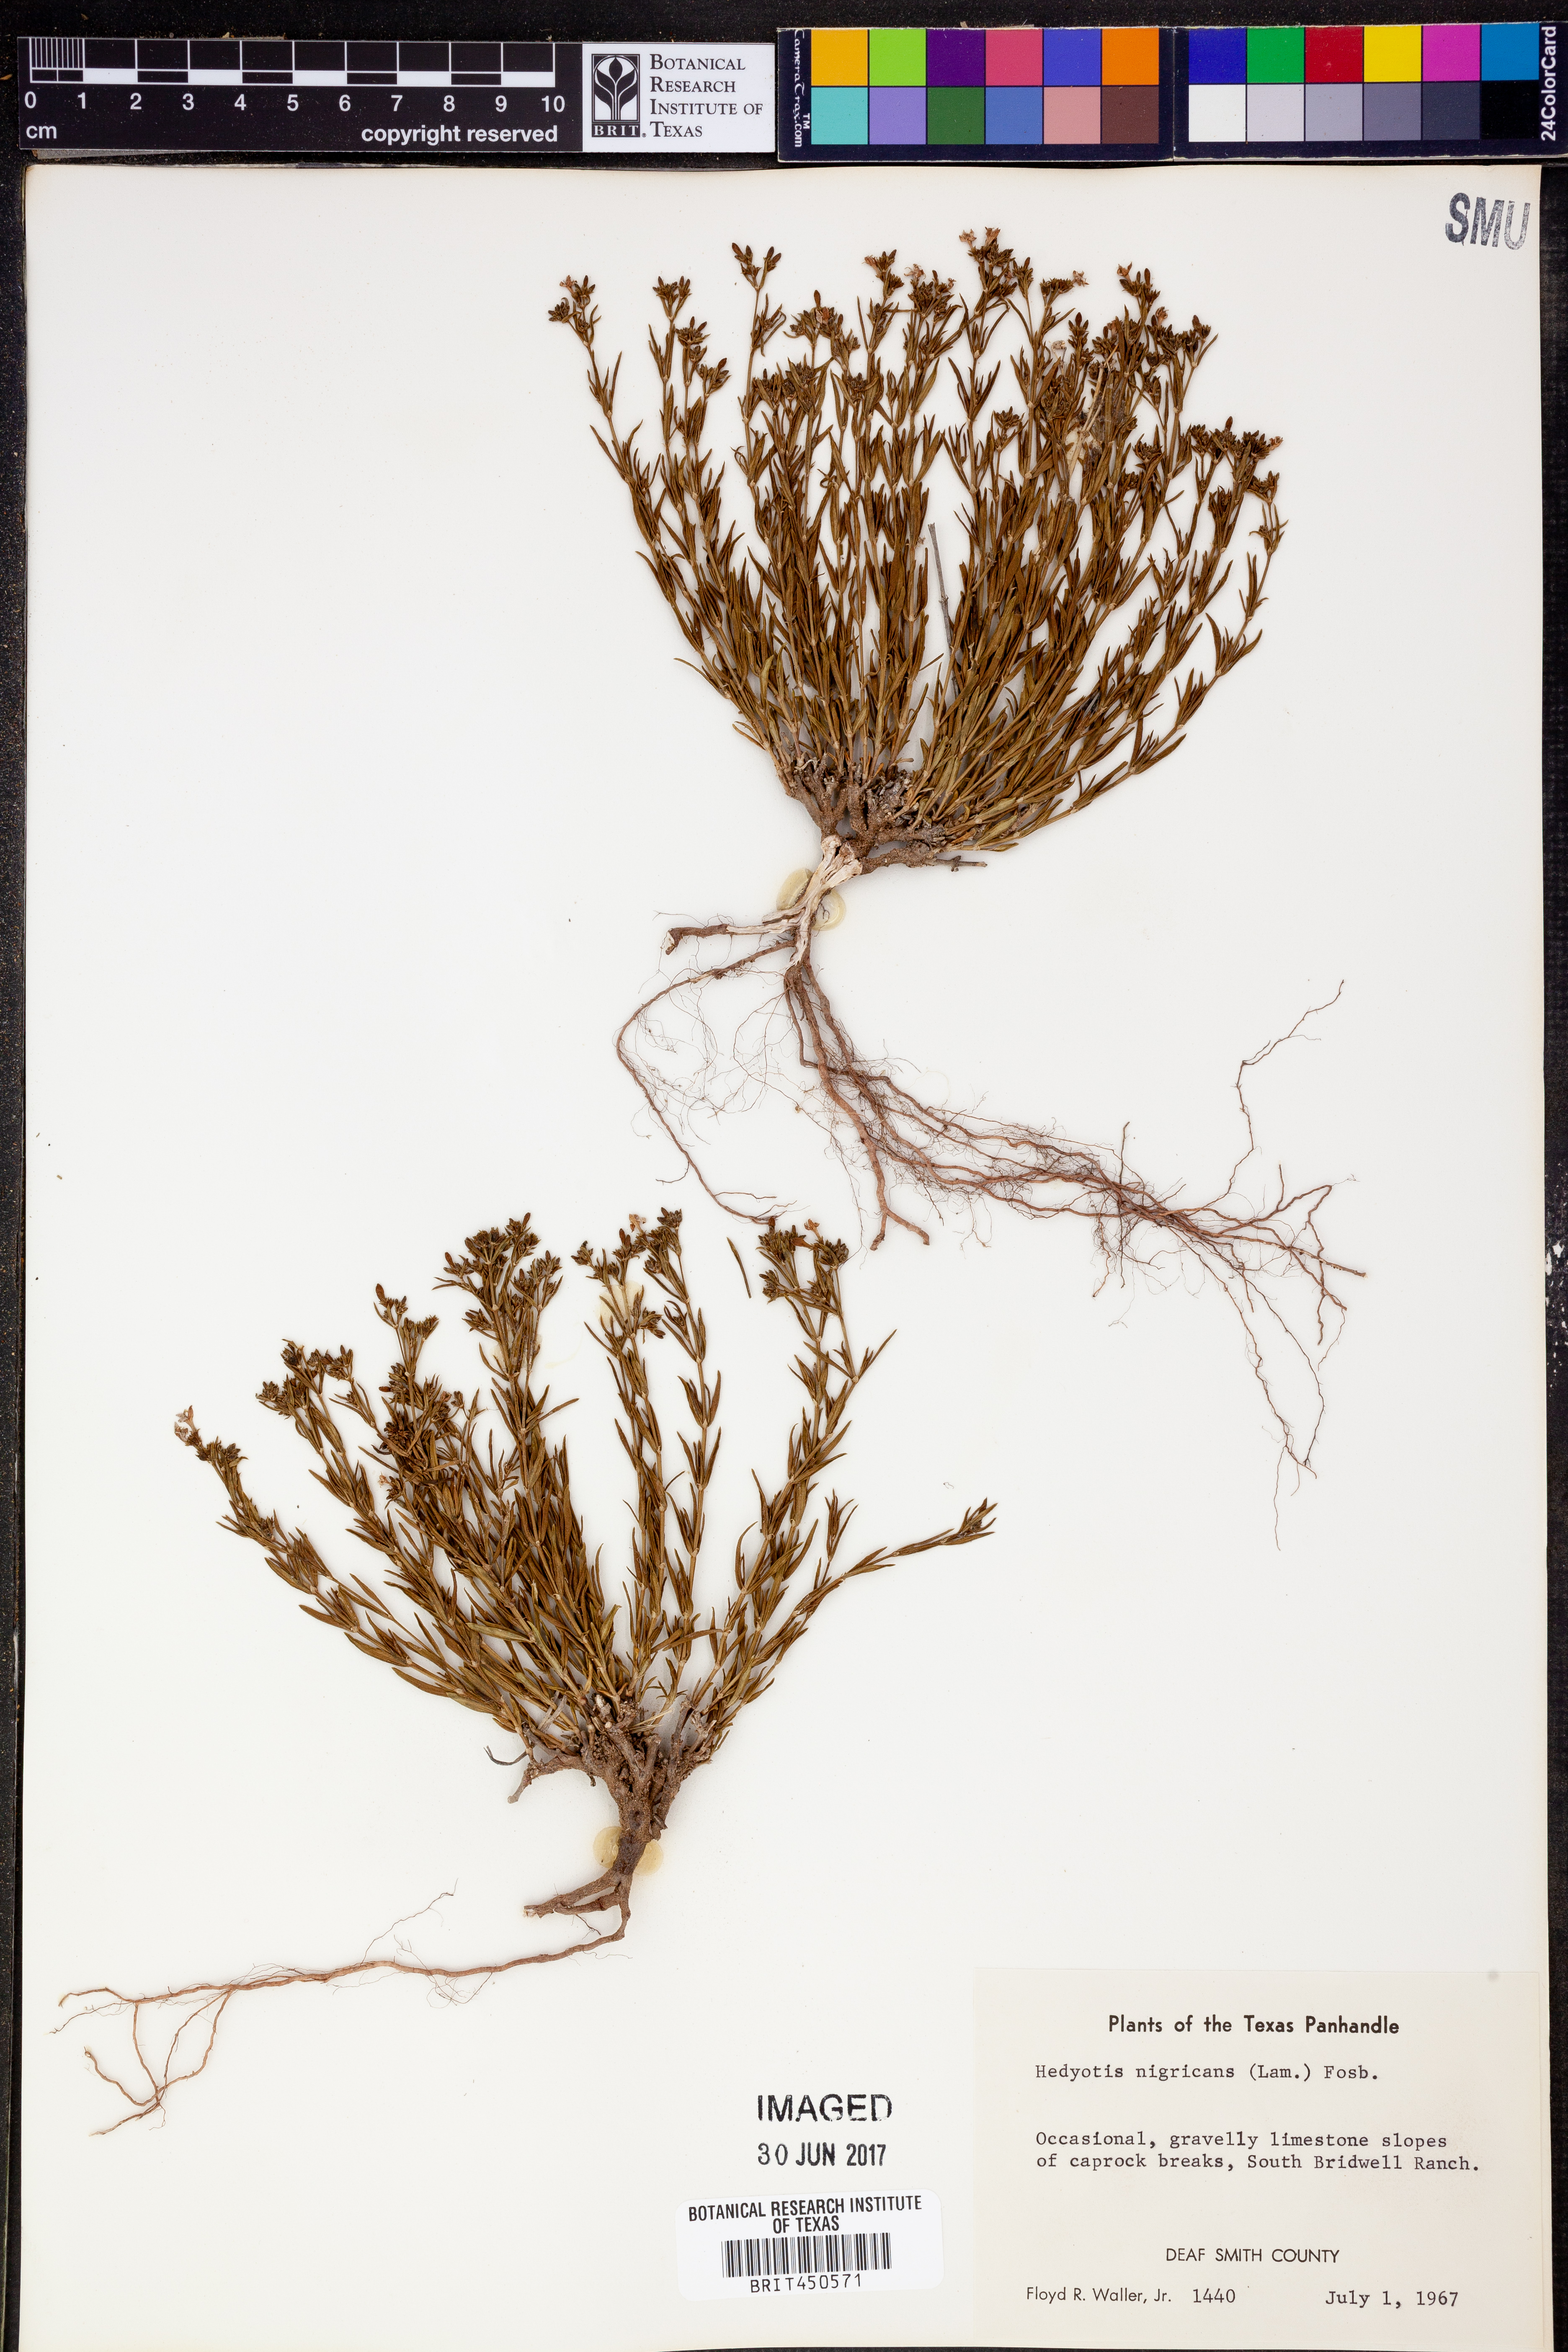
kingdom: Plantae
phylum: Tracheophyta
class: Magnoliopsida
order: Gentianales
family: Rubiaceae
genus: Stenaria
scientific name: Stenaria nigricans
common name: Diamondflowers
